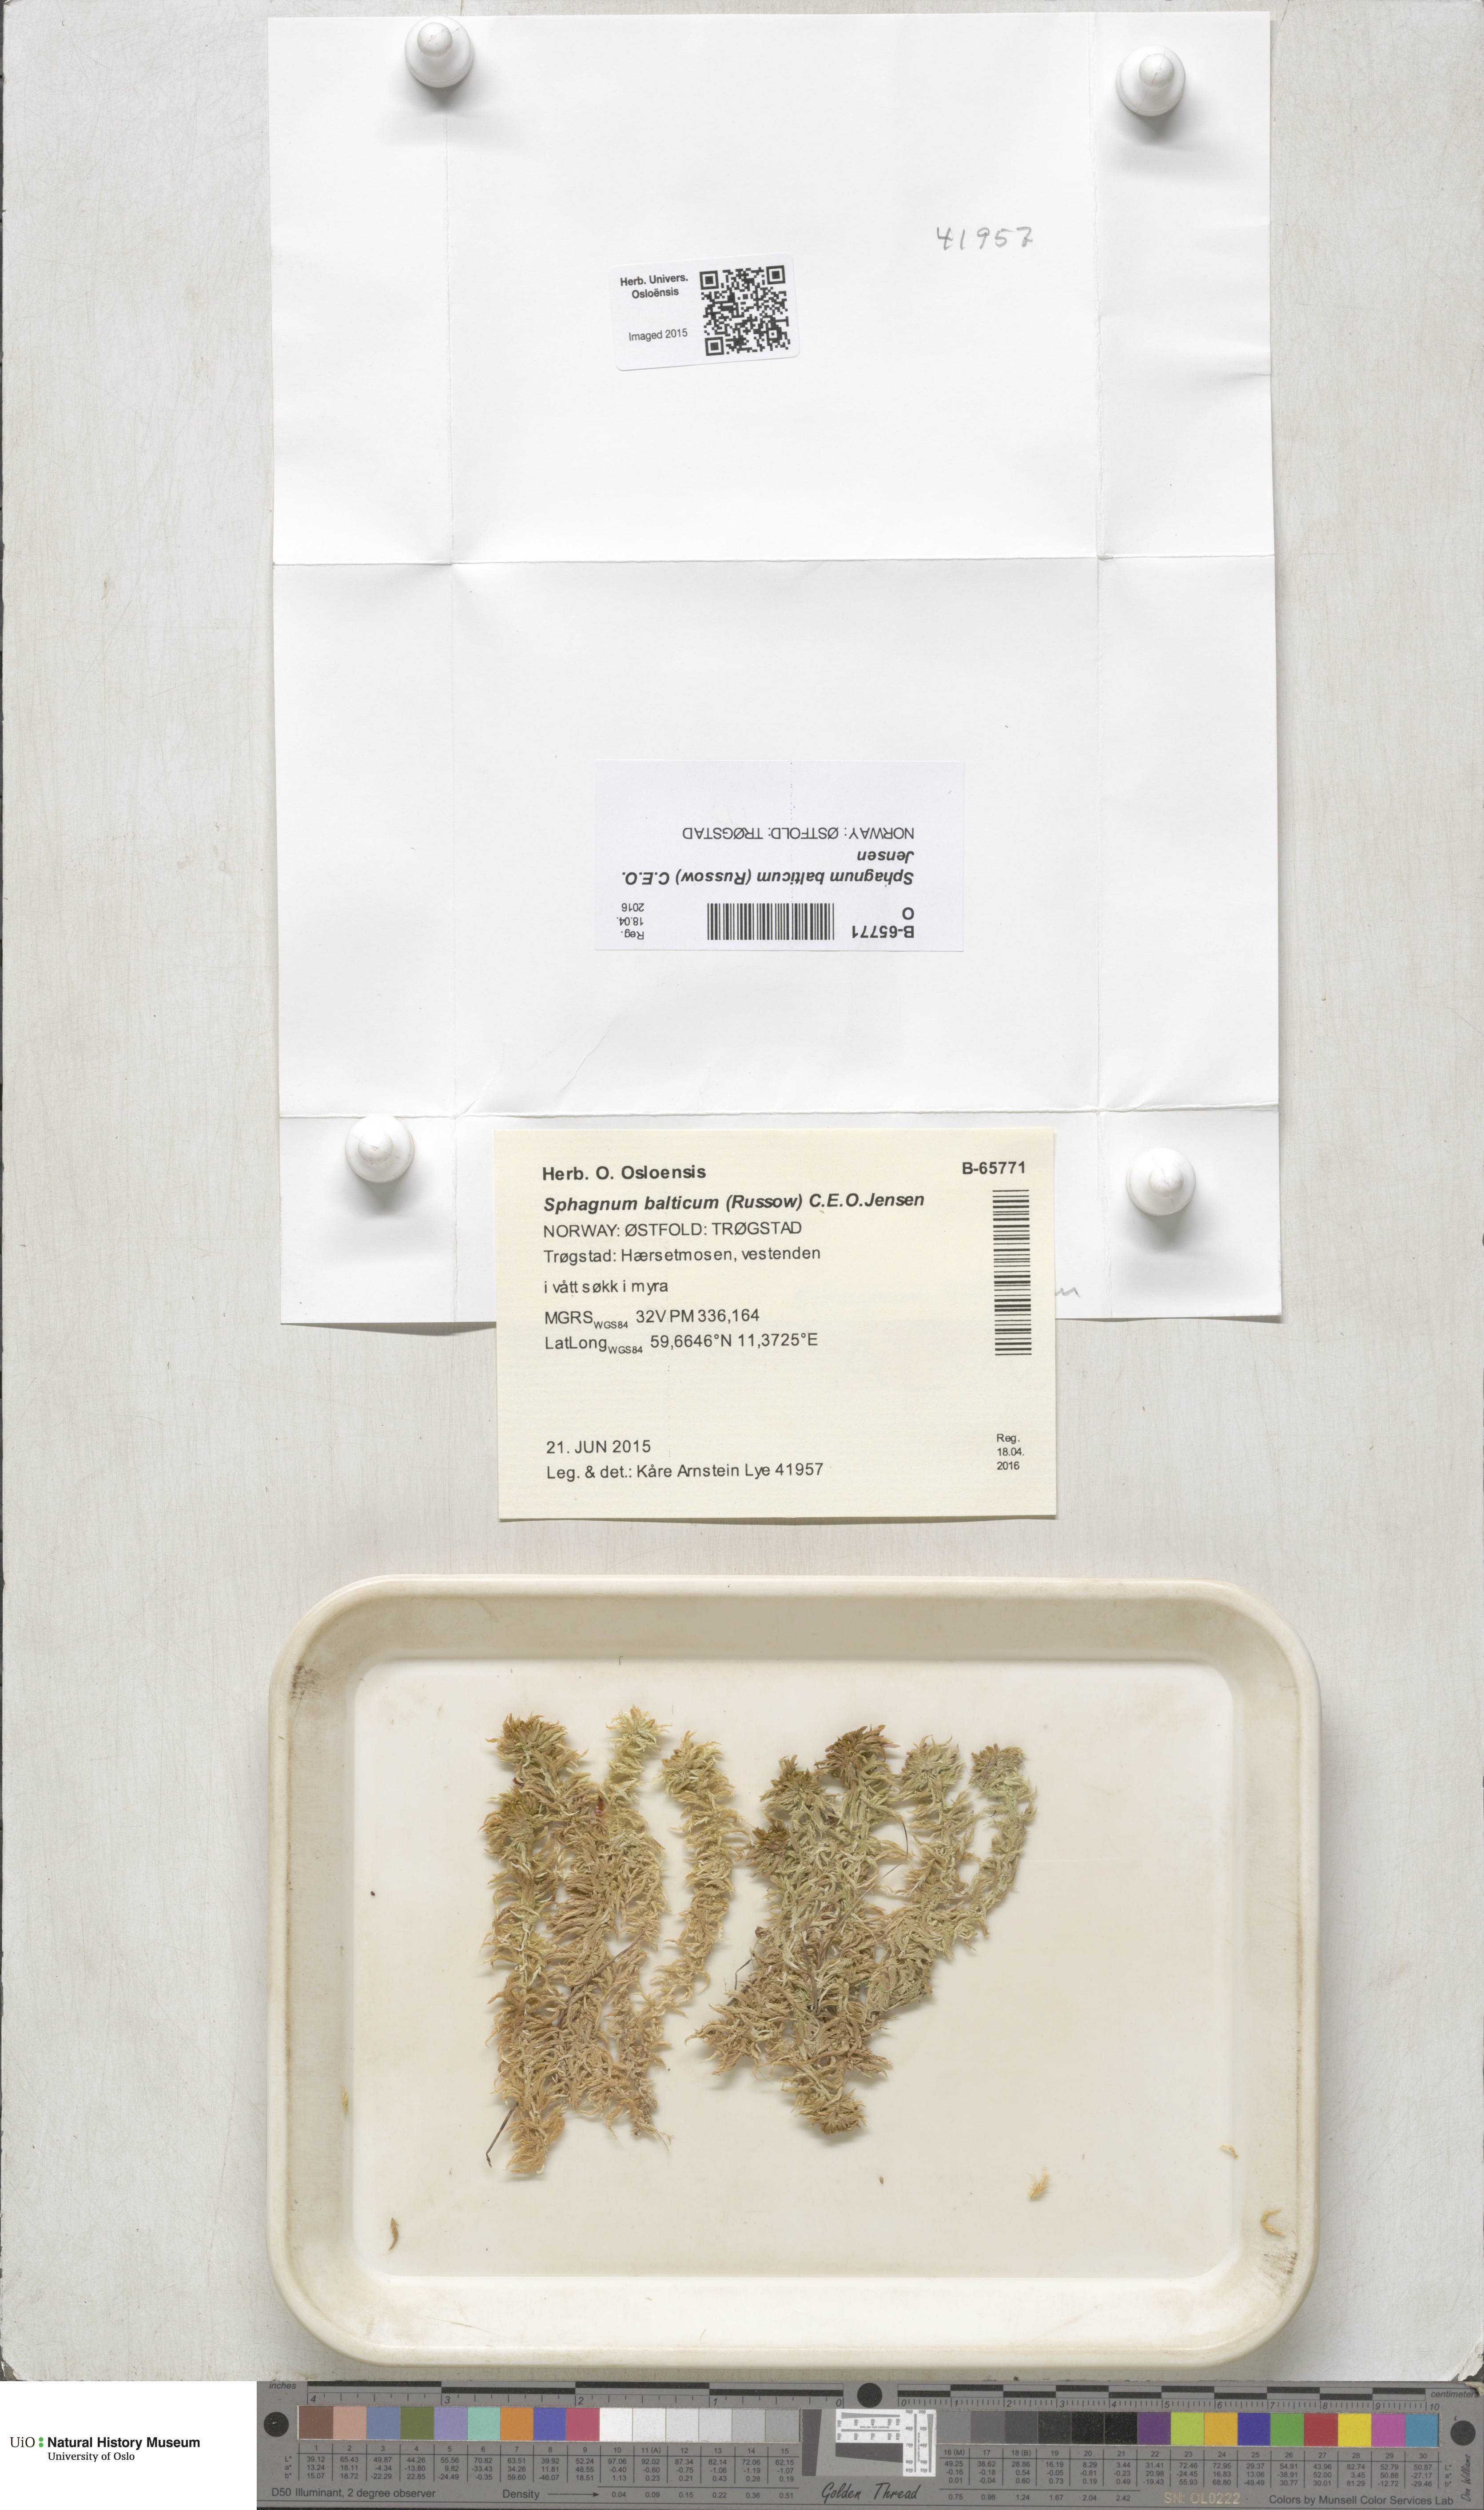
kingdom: Plantae
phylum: Bryophyta
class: Sphagnopsida
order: Sphagnales
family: Sphagnaceae
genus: Sphagnum
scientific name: Sphagnum balticum
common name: Baltic bog-moss
